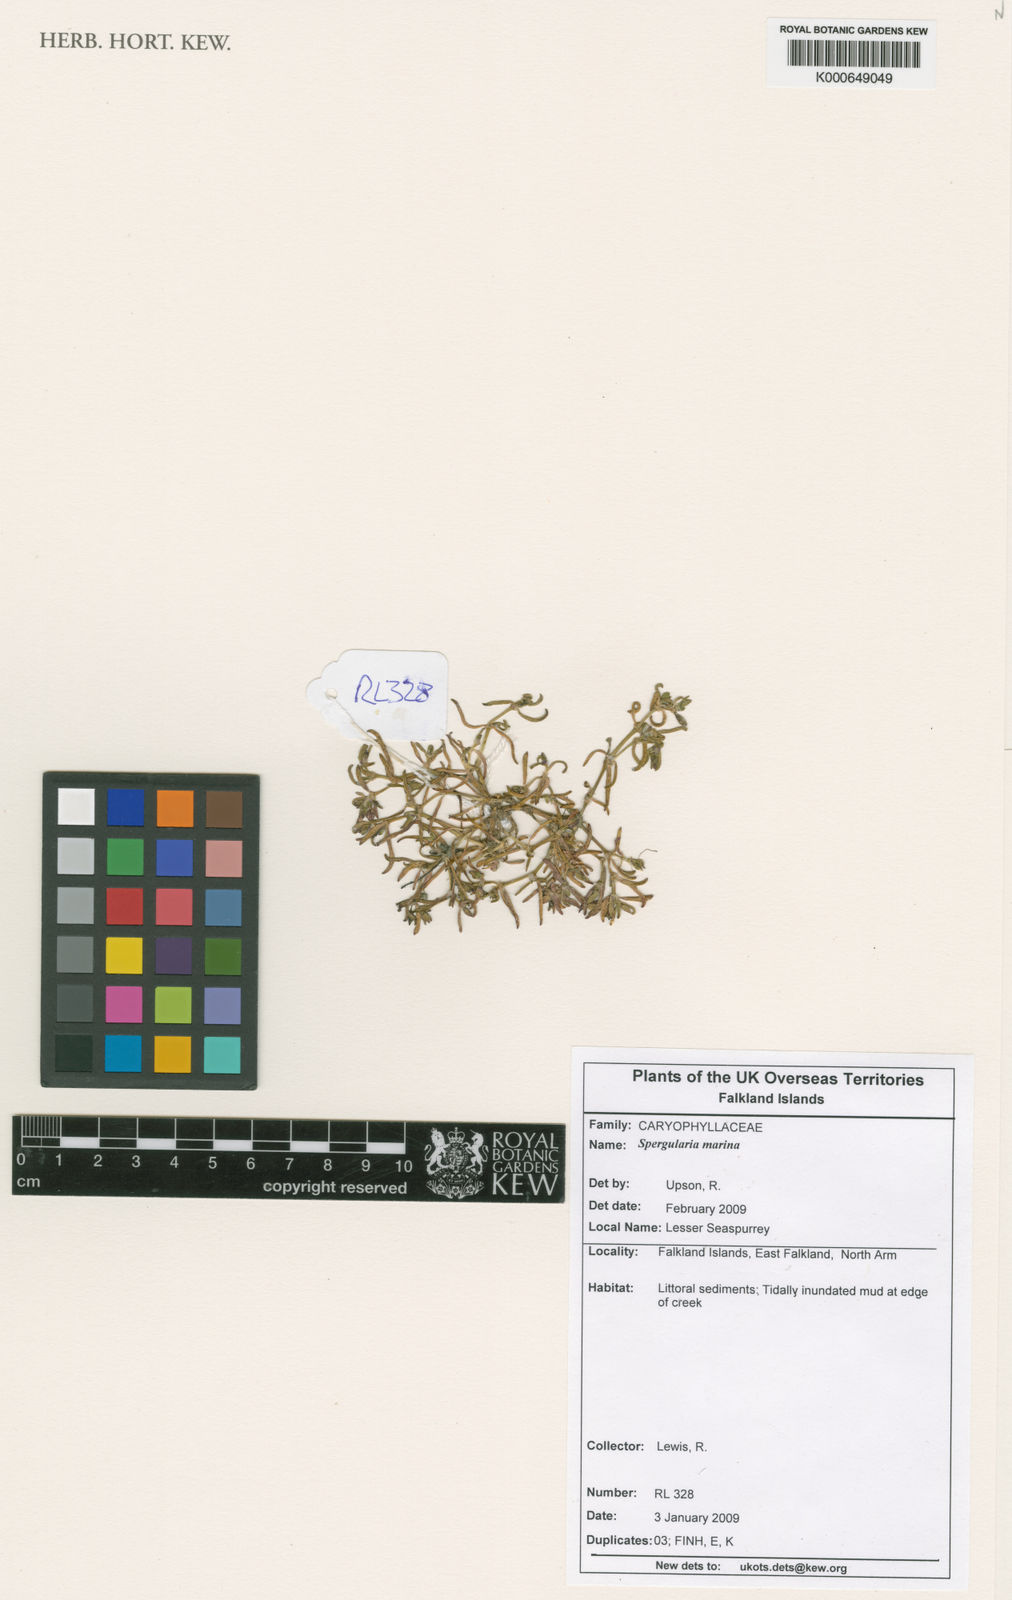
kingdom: Plantae
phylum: Tracheophyta
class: Magnoliopsida
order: Caryophyllales
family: Caryophyllaceae
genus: Spergularia
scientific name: Spergularia marina
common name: Lesser sea-spurrey
